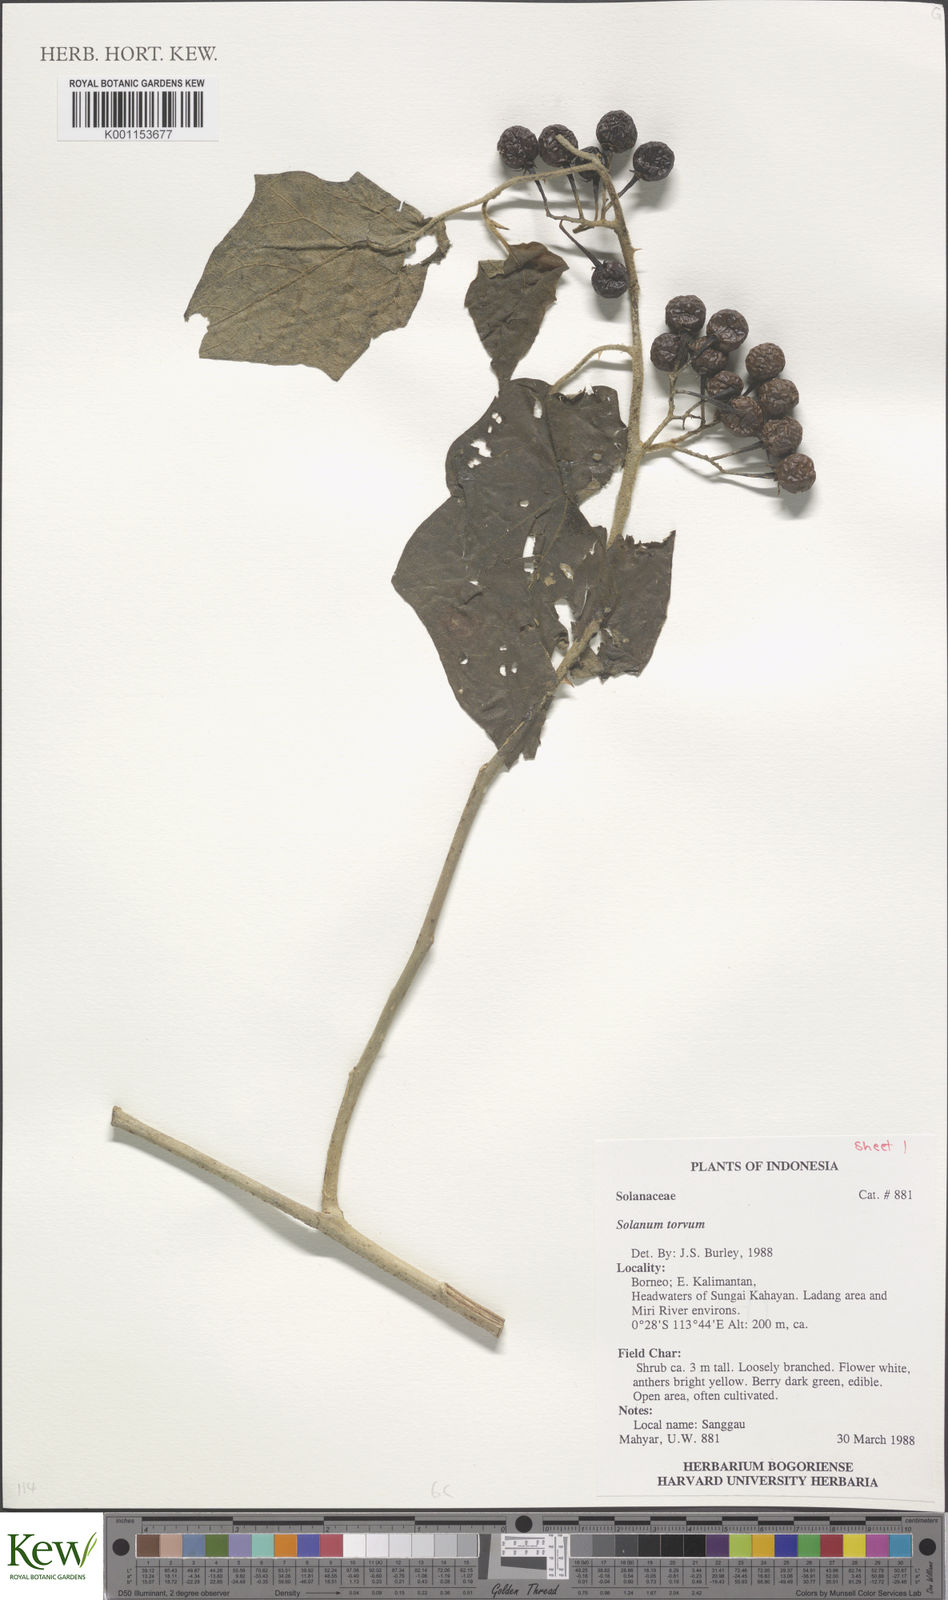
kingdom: Plantae
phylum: Tracheophyta
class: Magnoliopsida
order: Solanales
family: Solanaceae
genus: Solanum
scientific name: Solanum torvum
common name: Turkey berry
